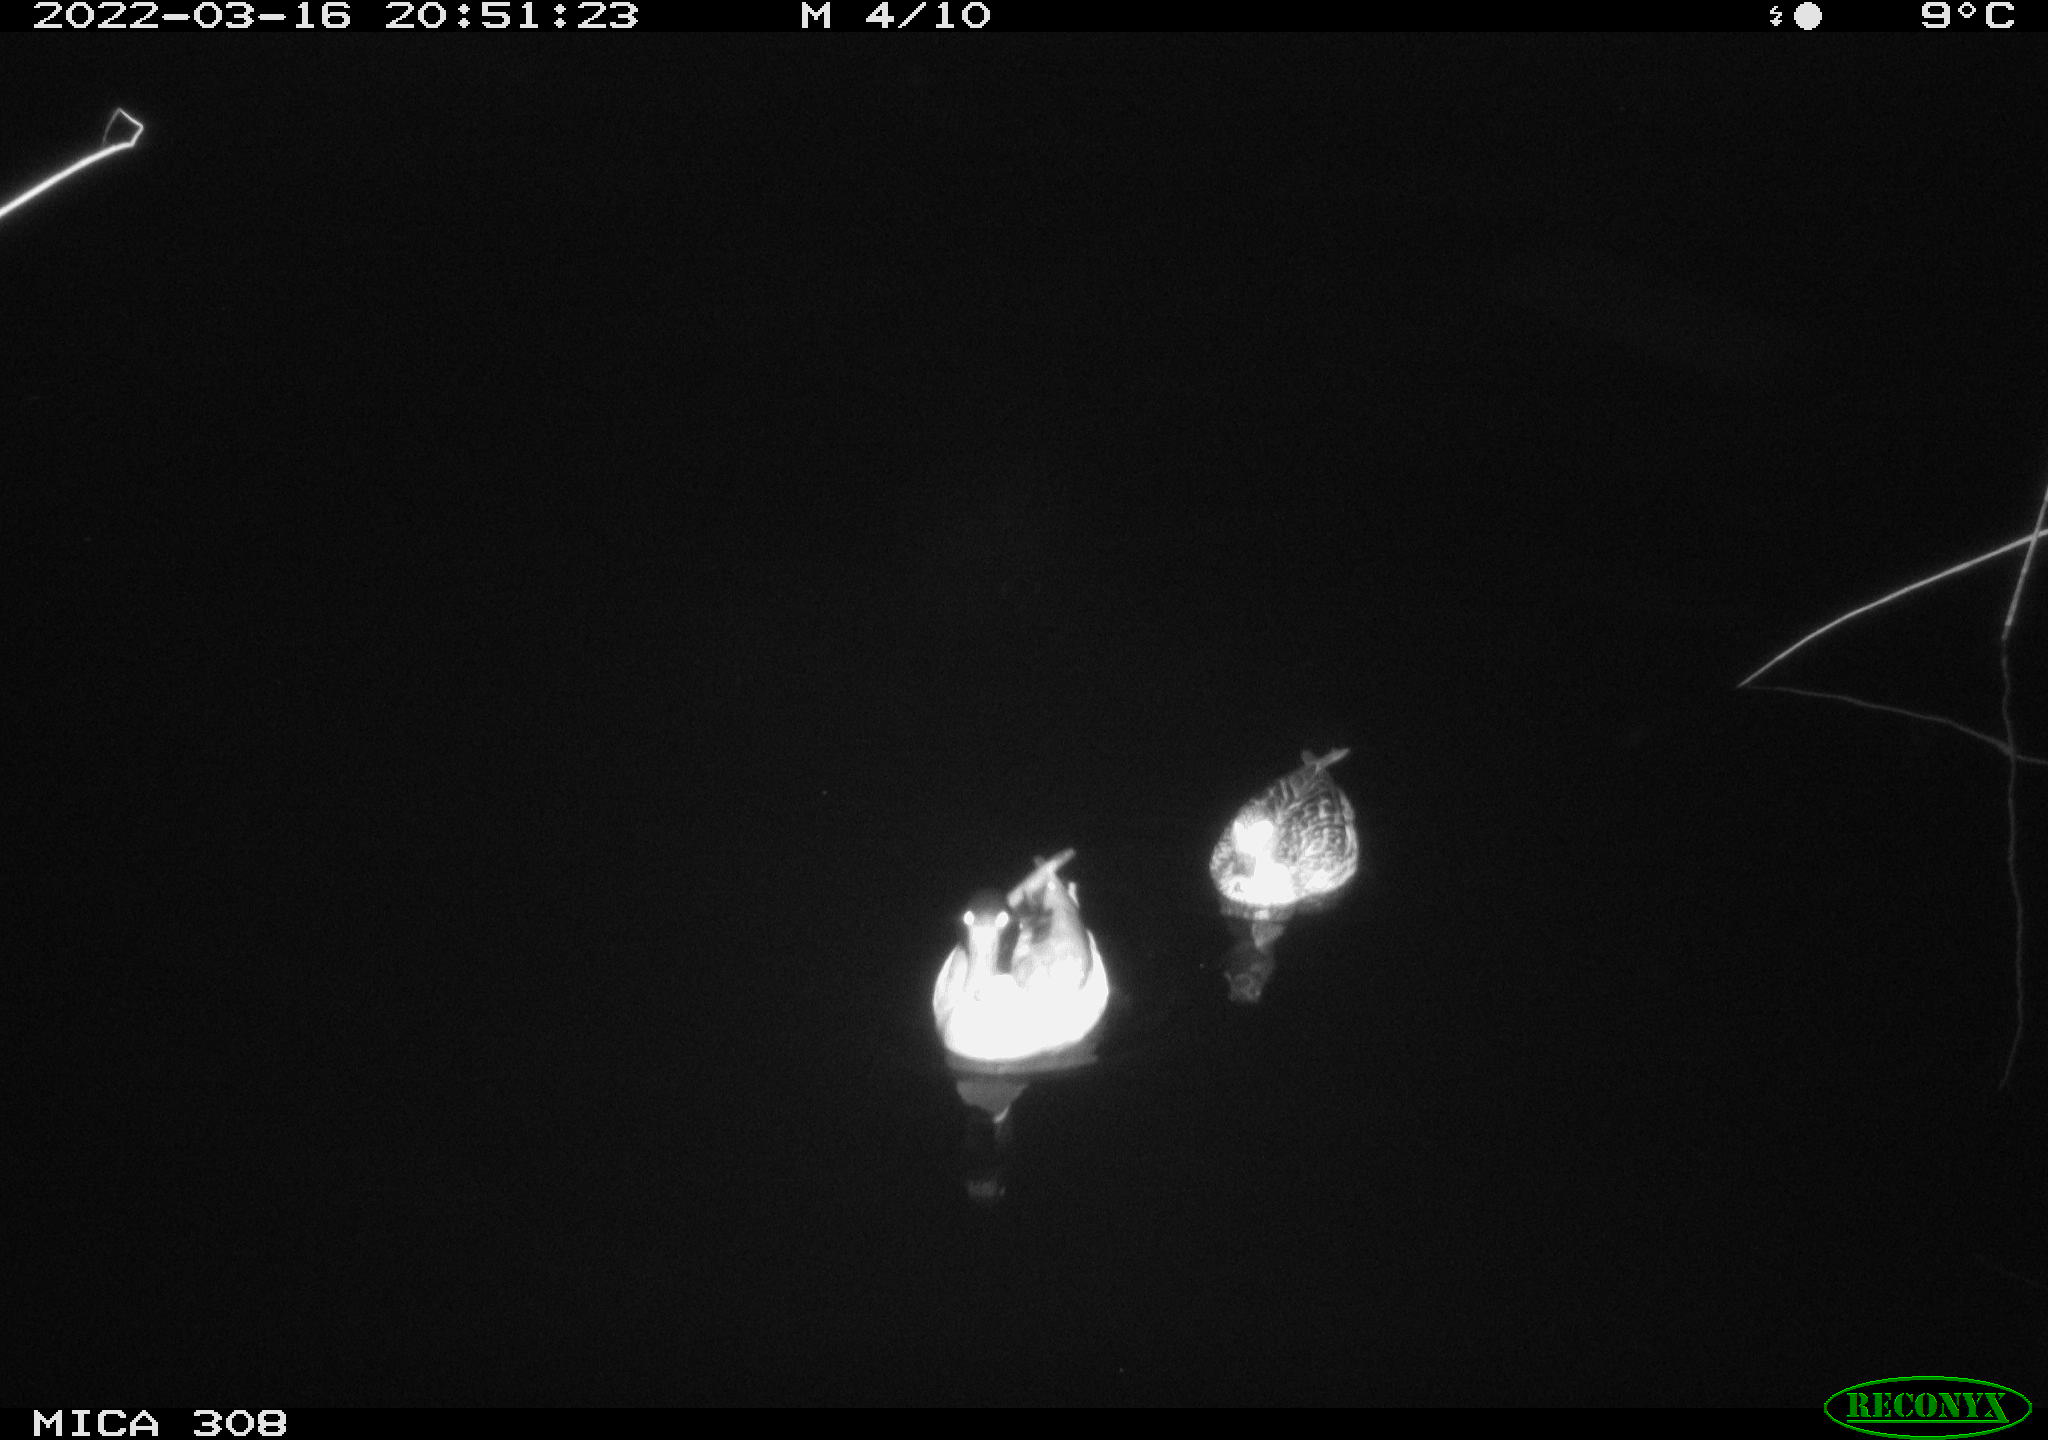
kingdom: Animalia
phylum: Chordata
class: Aves
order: Anseriformes
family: Anatidae
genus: Anas
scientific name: Anas platyrhynchos
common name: Mallard
